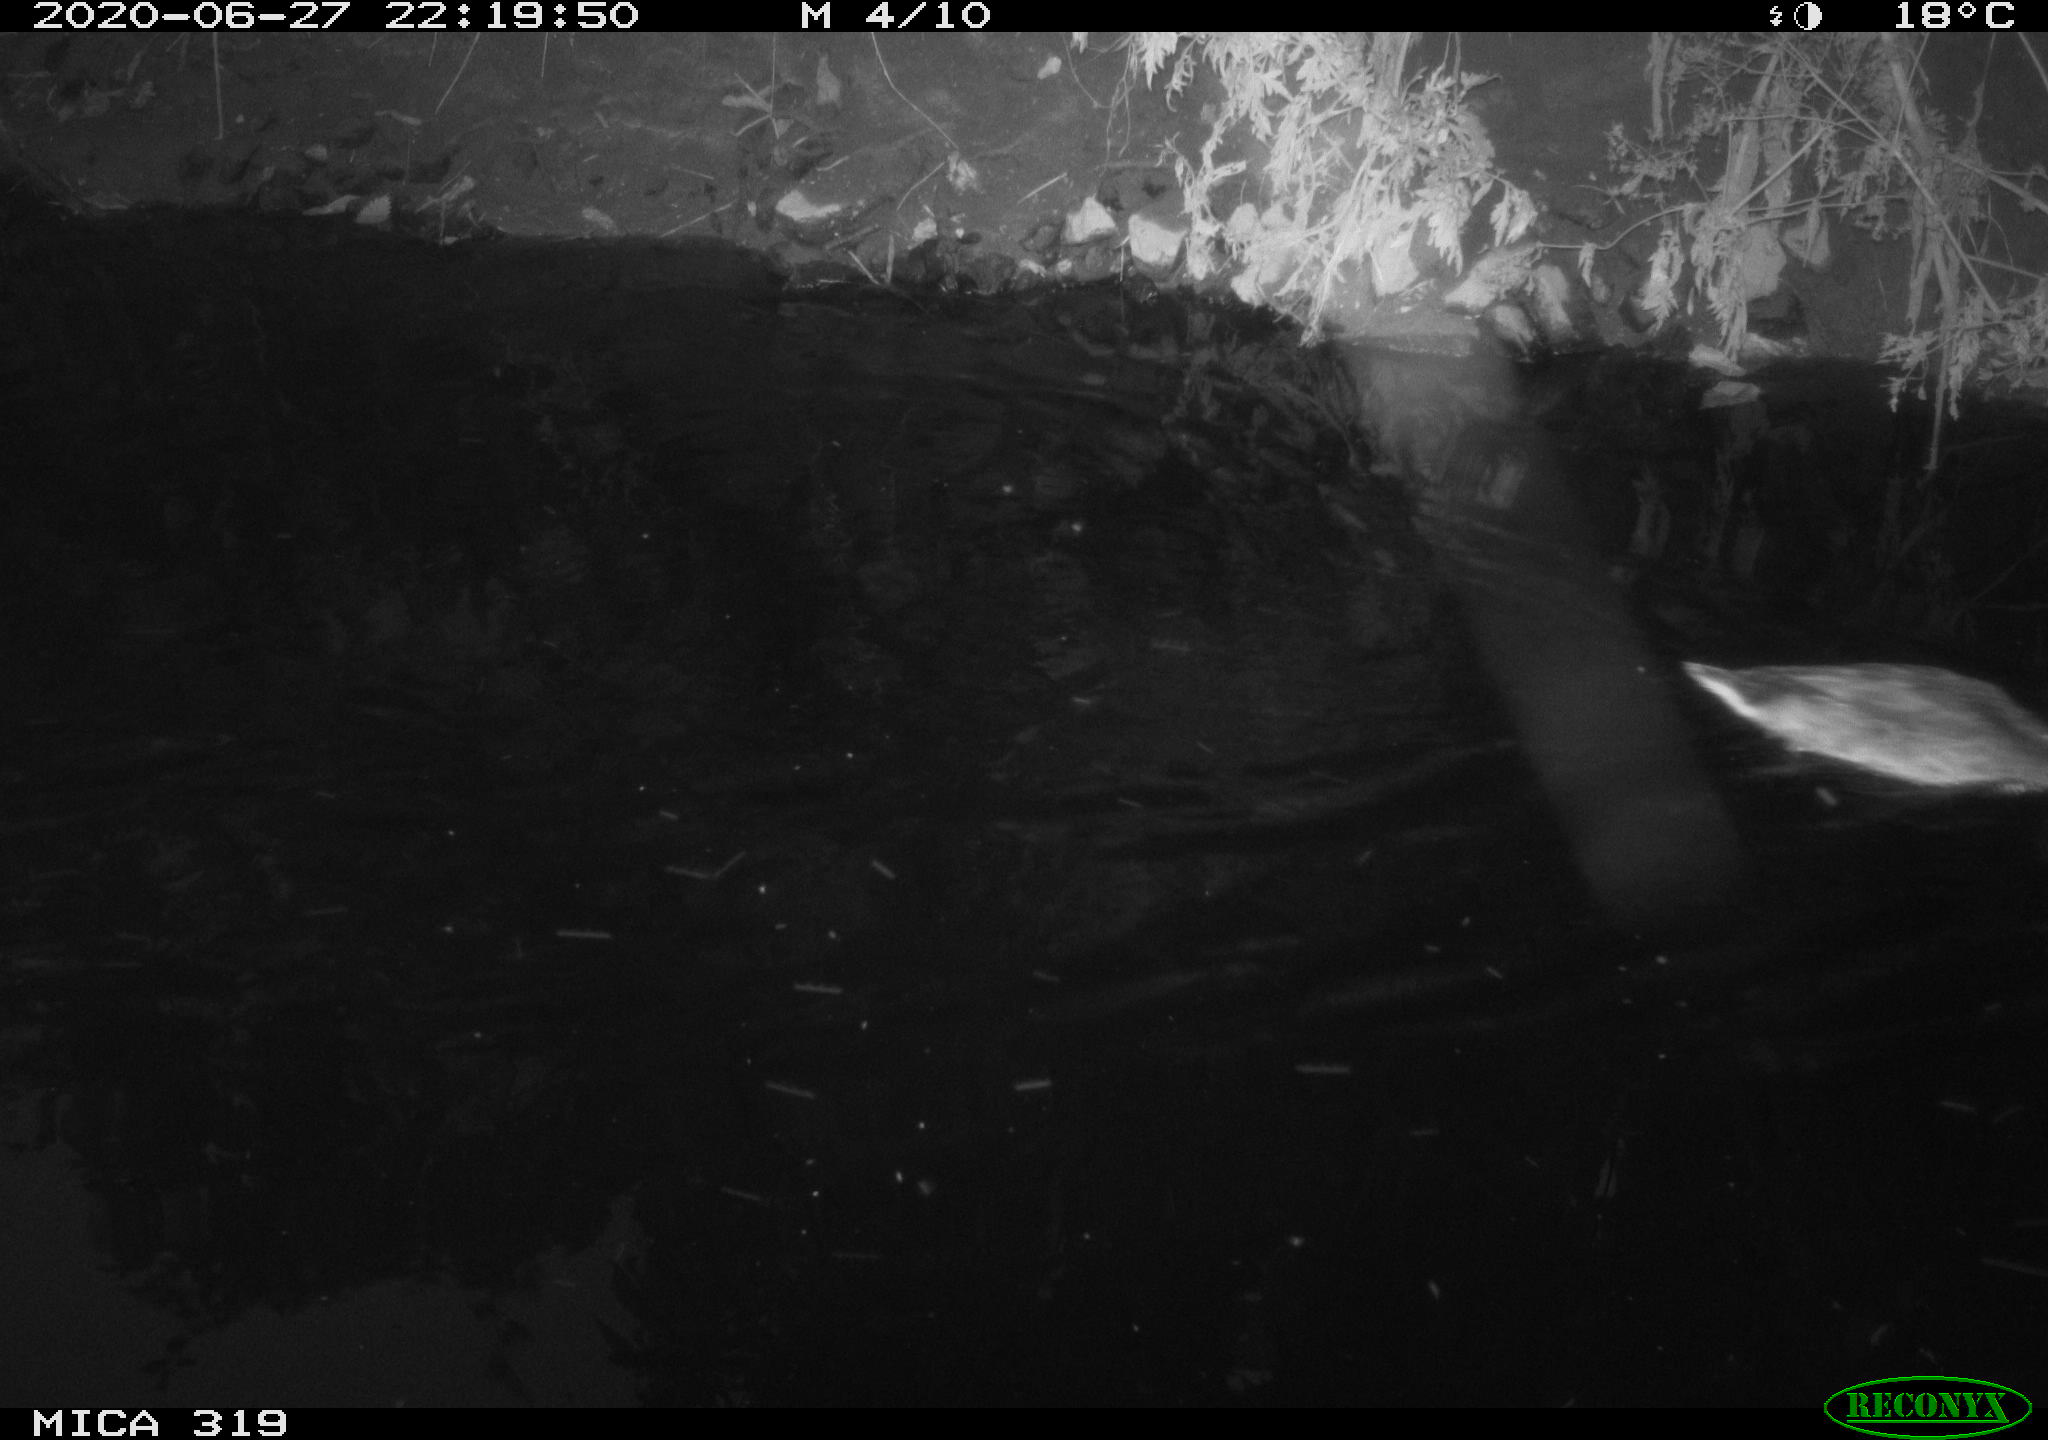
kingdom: Animalia
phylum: Chordata
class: Aves
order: Anseriformes
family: Anatidae
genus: Anas
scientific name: Anas platyrhynchos
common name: Mallard
